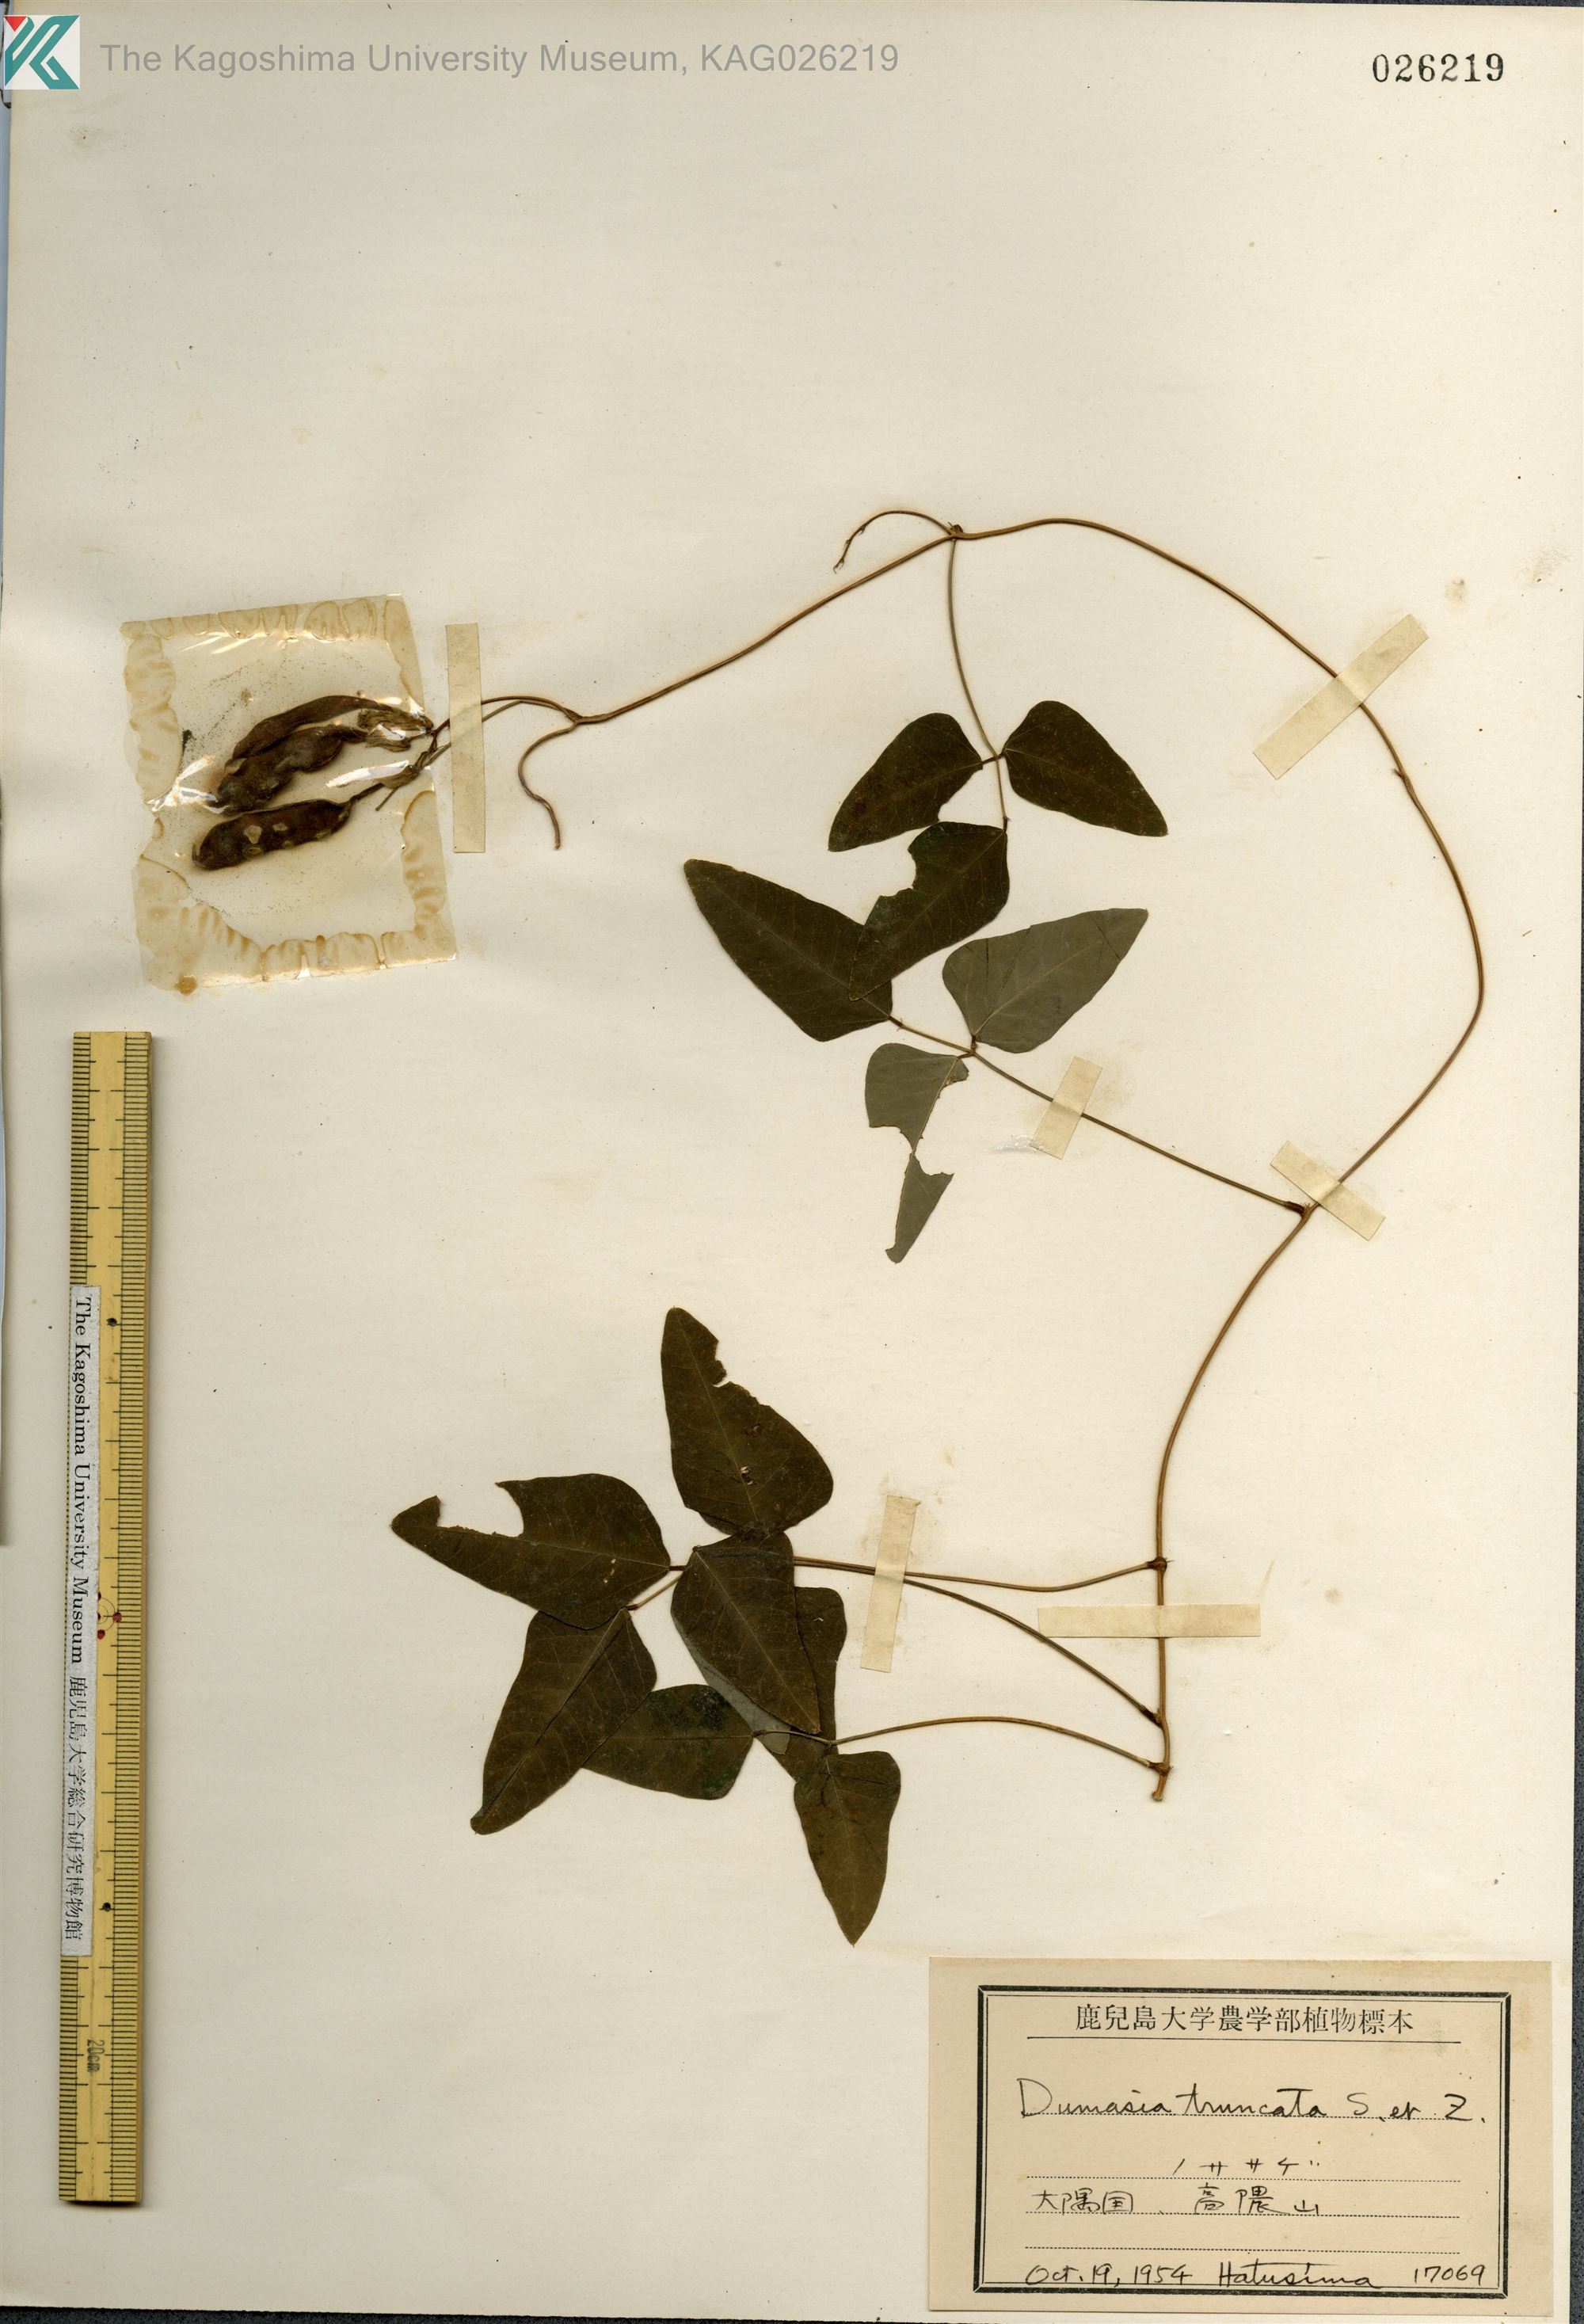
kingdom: Plantae
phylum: Tracheophyta
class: Magnoliopsida
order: Fabales
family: Fabaceae
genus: Dumasia
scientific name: Dumasia truncata
